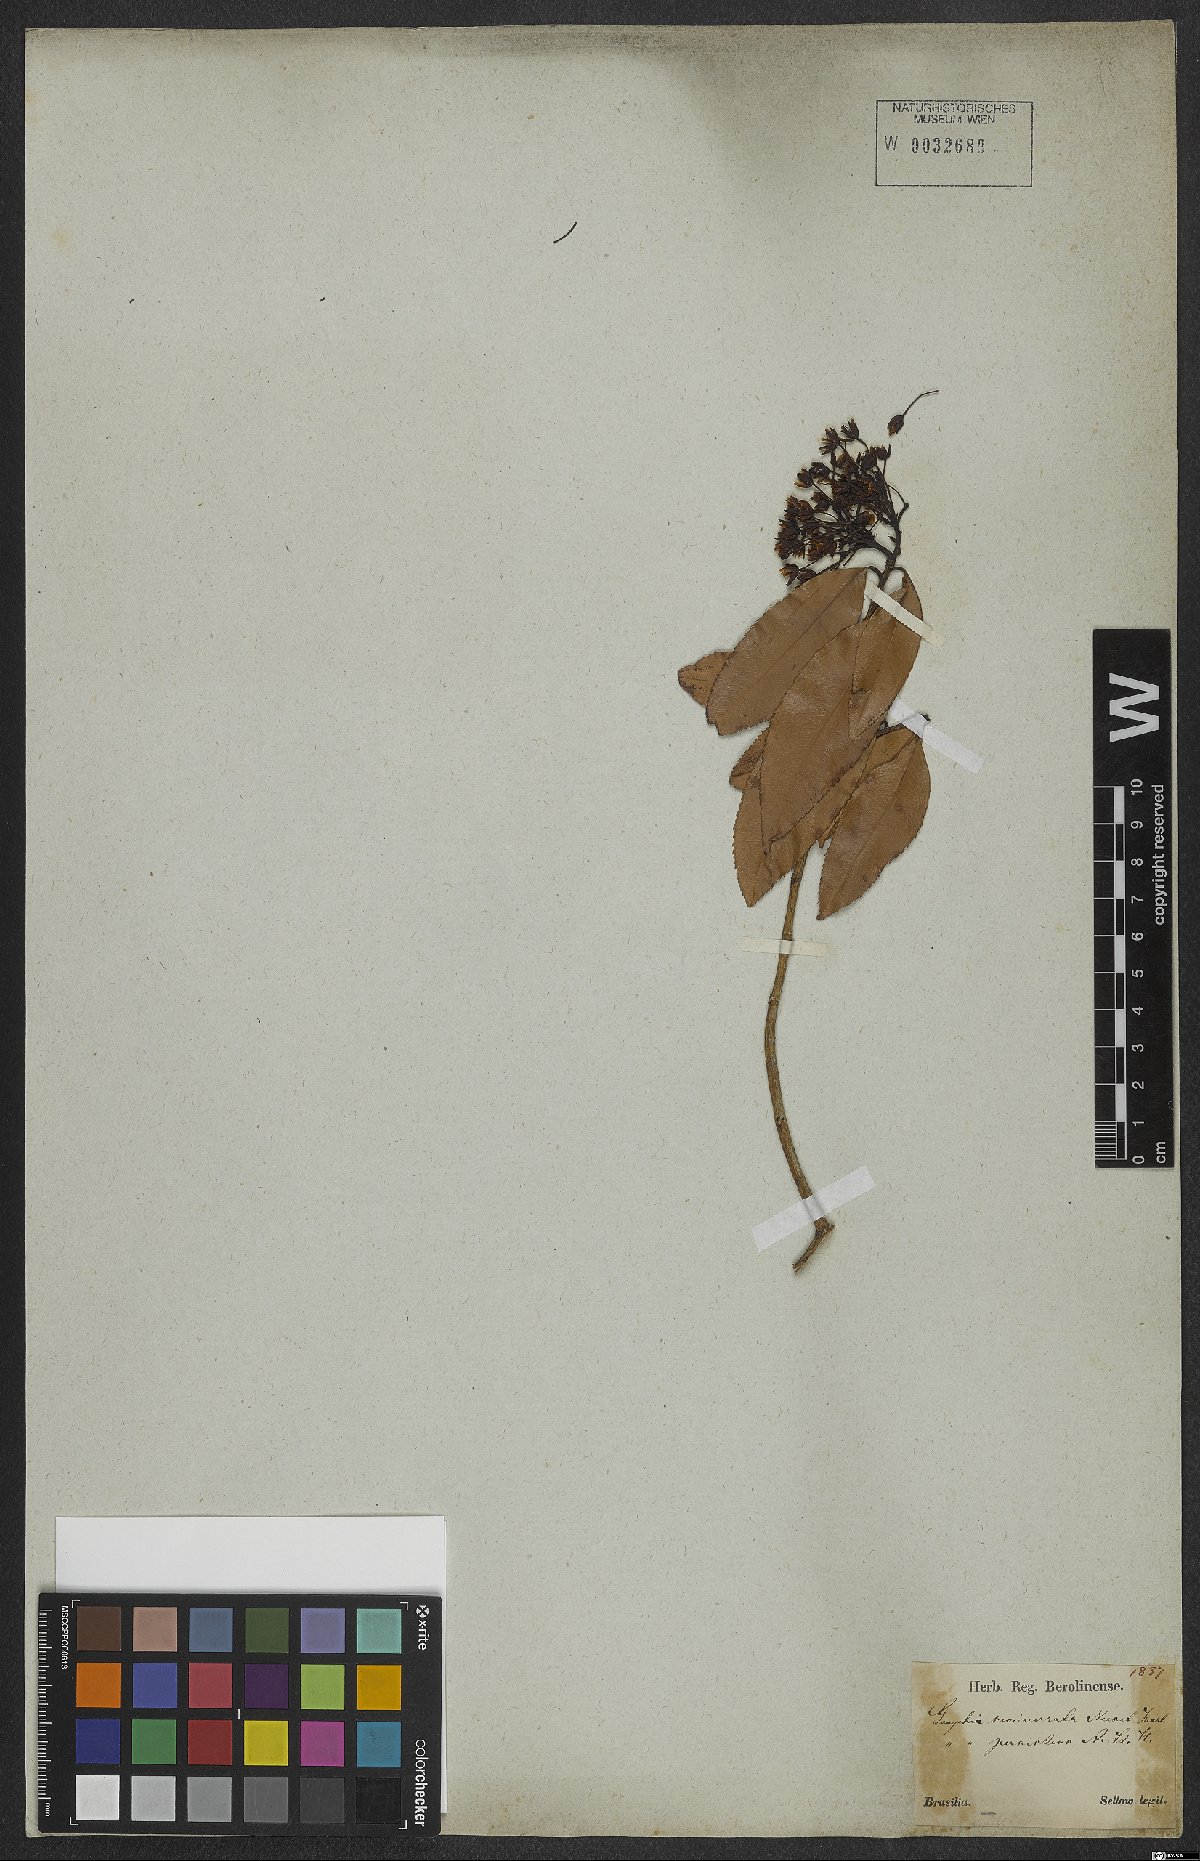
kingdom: Plantae
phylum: Tracheophyta
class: Magnoliopsida
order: Malpighiales
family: Ochnaceae
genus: Ouratea
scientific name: Ouratea semiserrata
